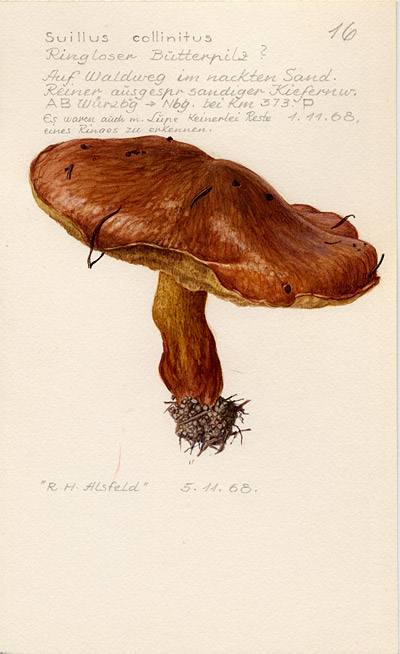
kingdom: Fungi
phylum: Basidiomycota
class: Agaricomycetes
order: Boletales
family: Suillaceae
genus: Suillus
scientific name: Suillus collinitus
